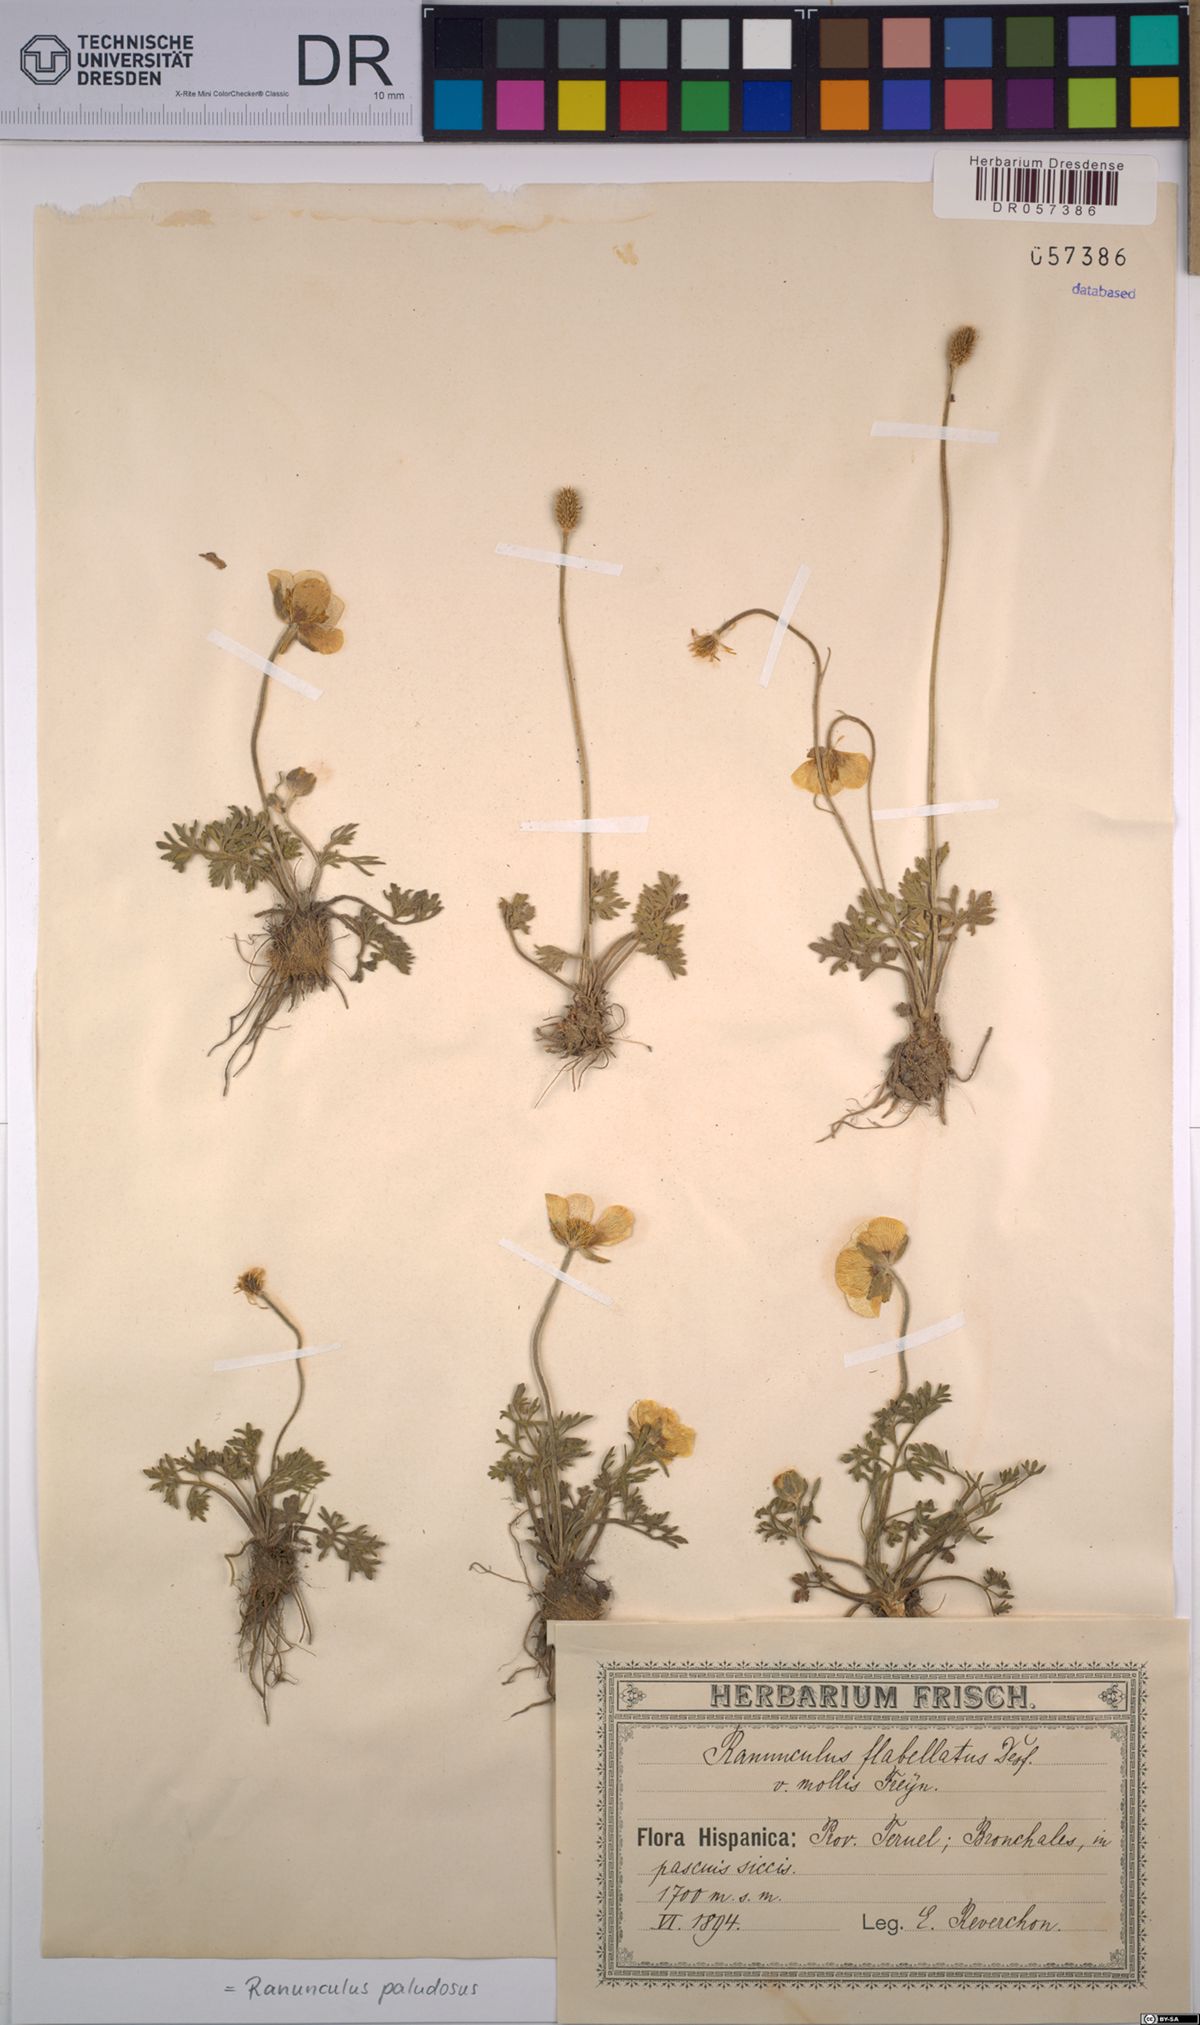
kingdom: Plantae
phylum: Tracheophyta
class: Magnoliopsida
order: Ranunculales
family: Ranunculaceae
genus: Ranunculus
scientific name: Ranunculus paludosus
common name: Jersey buttercup
